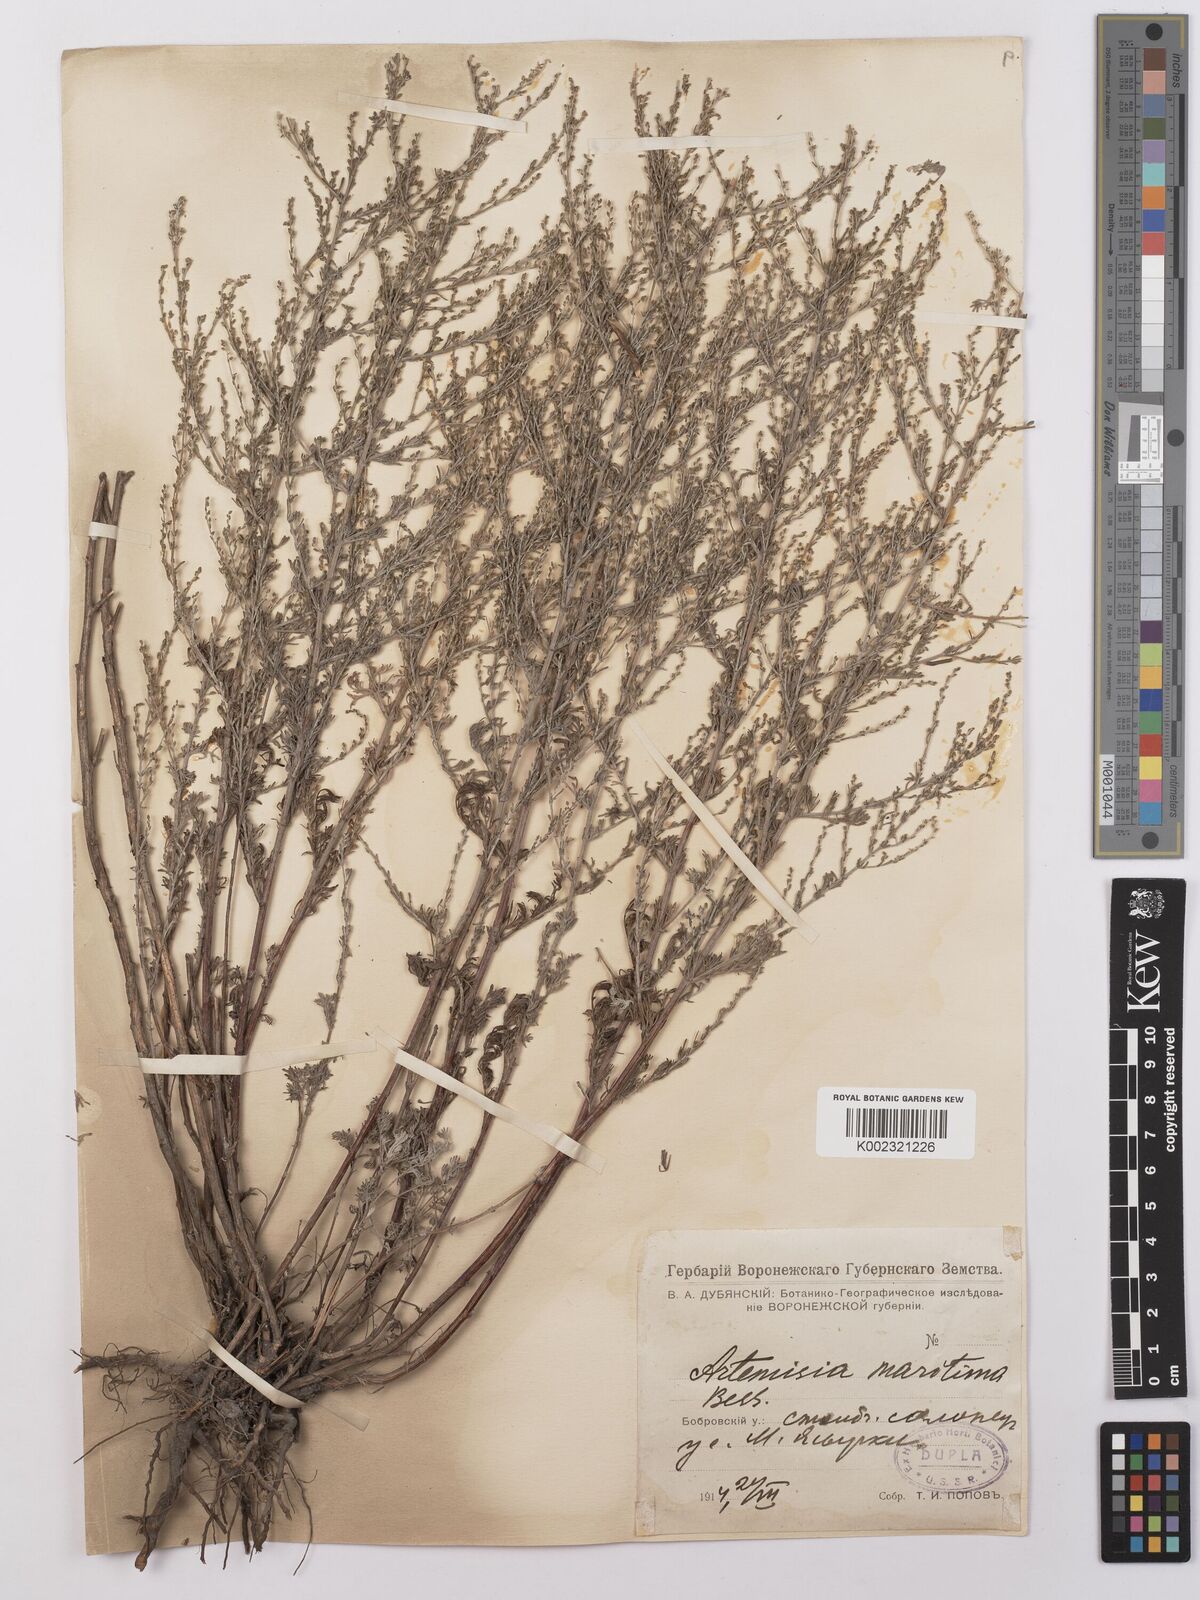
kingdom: Plantae
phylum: Tracheophyta
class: Magnoliopsida
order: Asterales
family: Asteraceae
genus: Artemisia
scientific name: Artemisia maritima
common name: Wormseed
